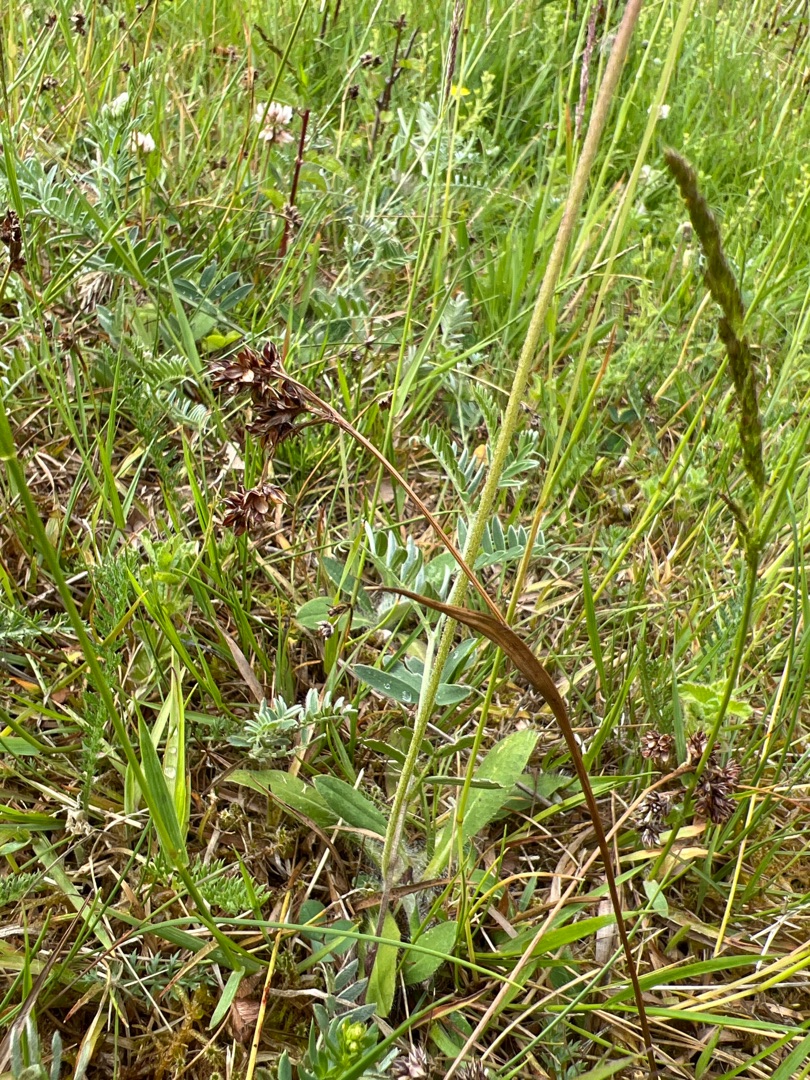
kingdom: Plantae
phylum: Tracheophyta
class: Liliopsida
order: Poales
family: Juncaceae
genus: Luzula
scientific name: Luzula campestris
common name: Mark-frytle
